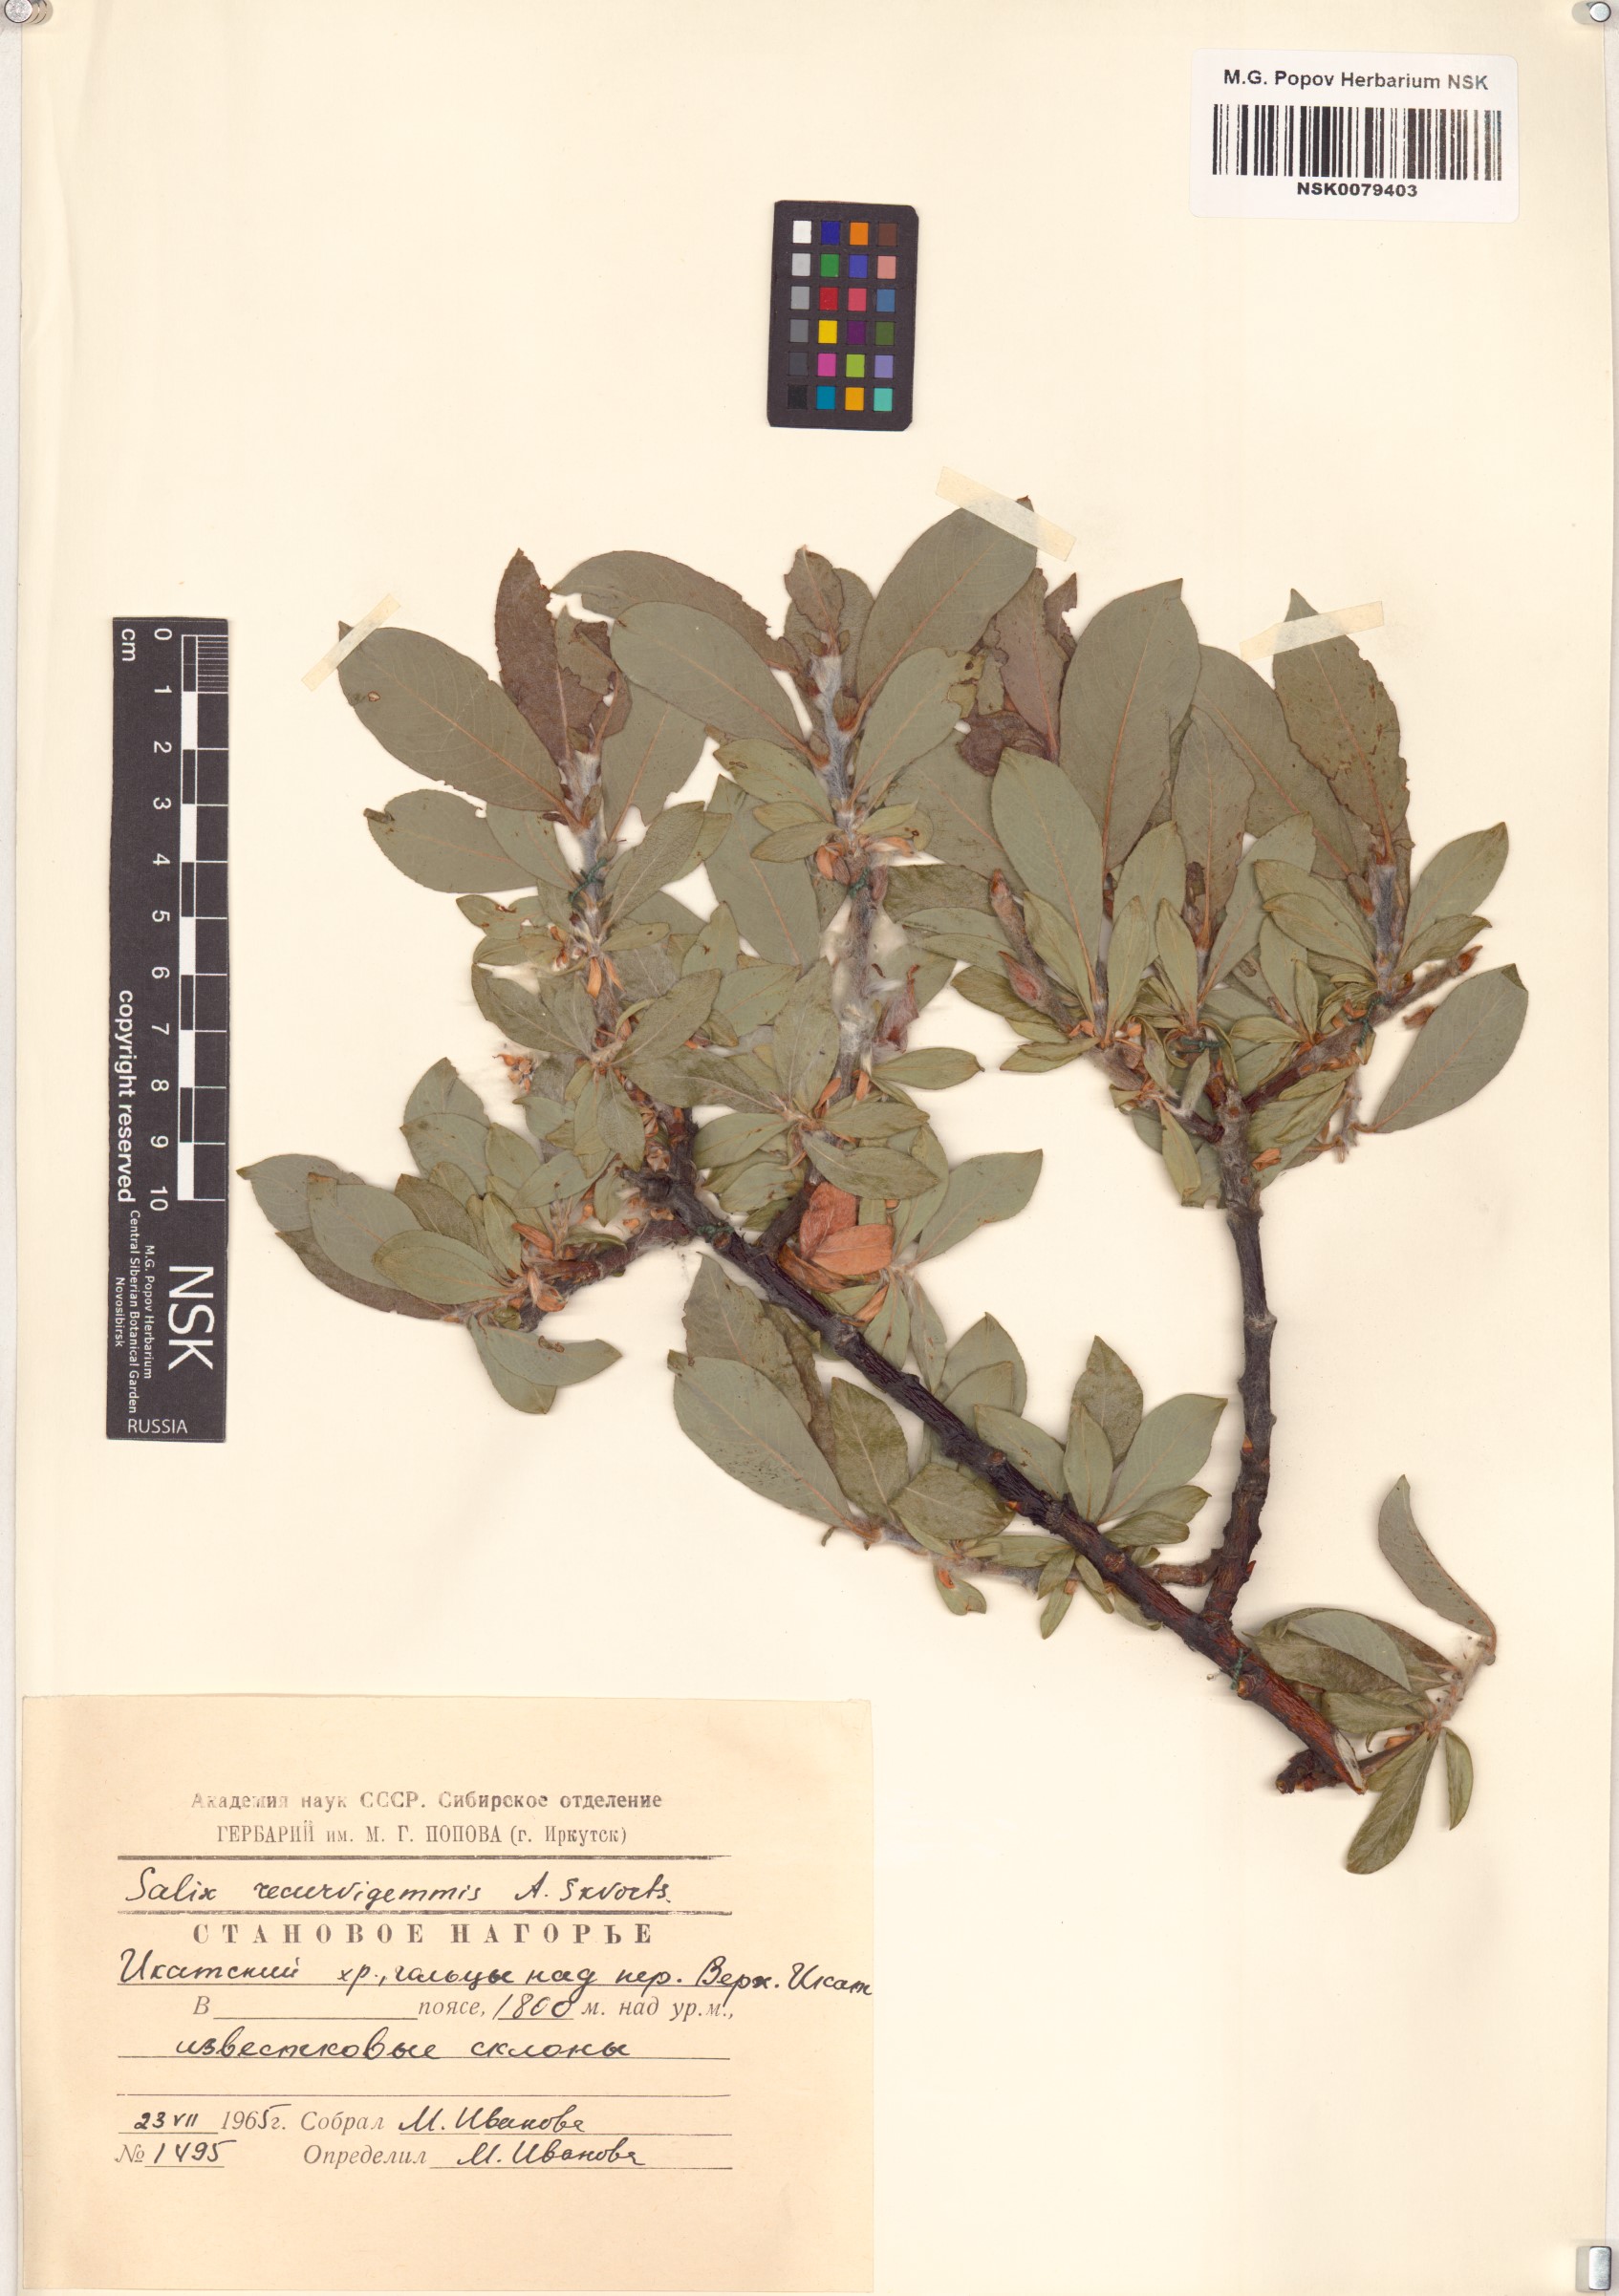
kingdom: Plantae
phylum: Tracheophyta
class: Magnoliopsida
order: Malpighiales
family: Salicaceae
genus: Salix
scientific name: Salix recurvigemmata
